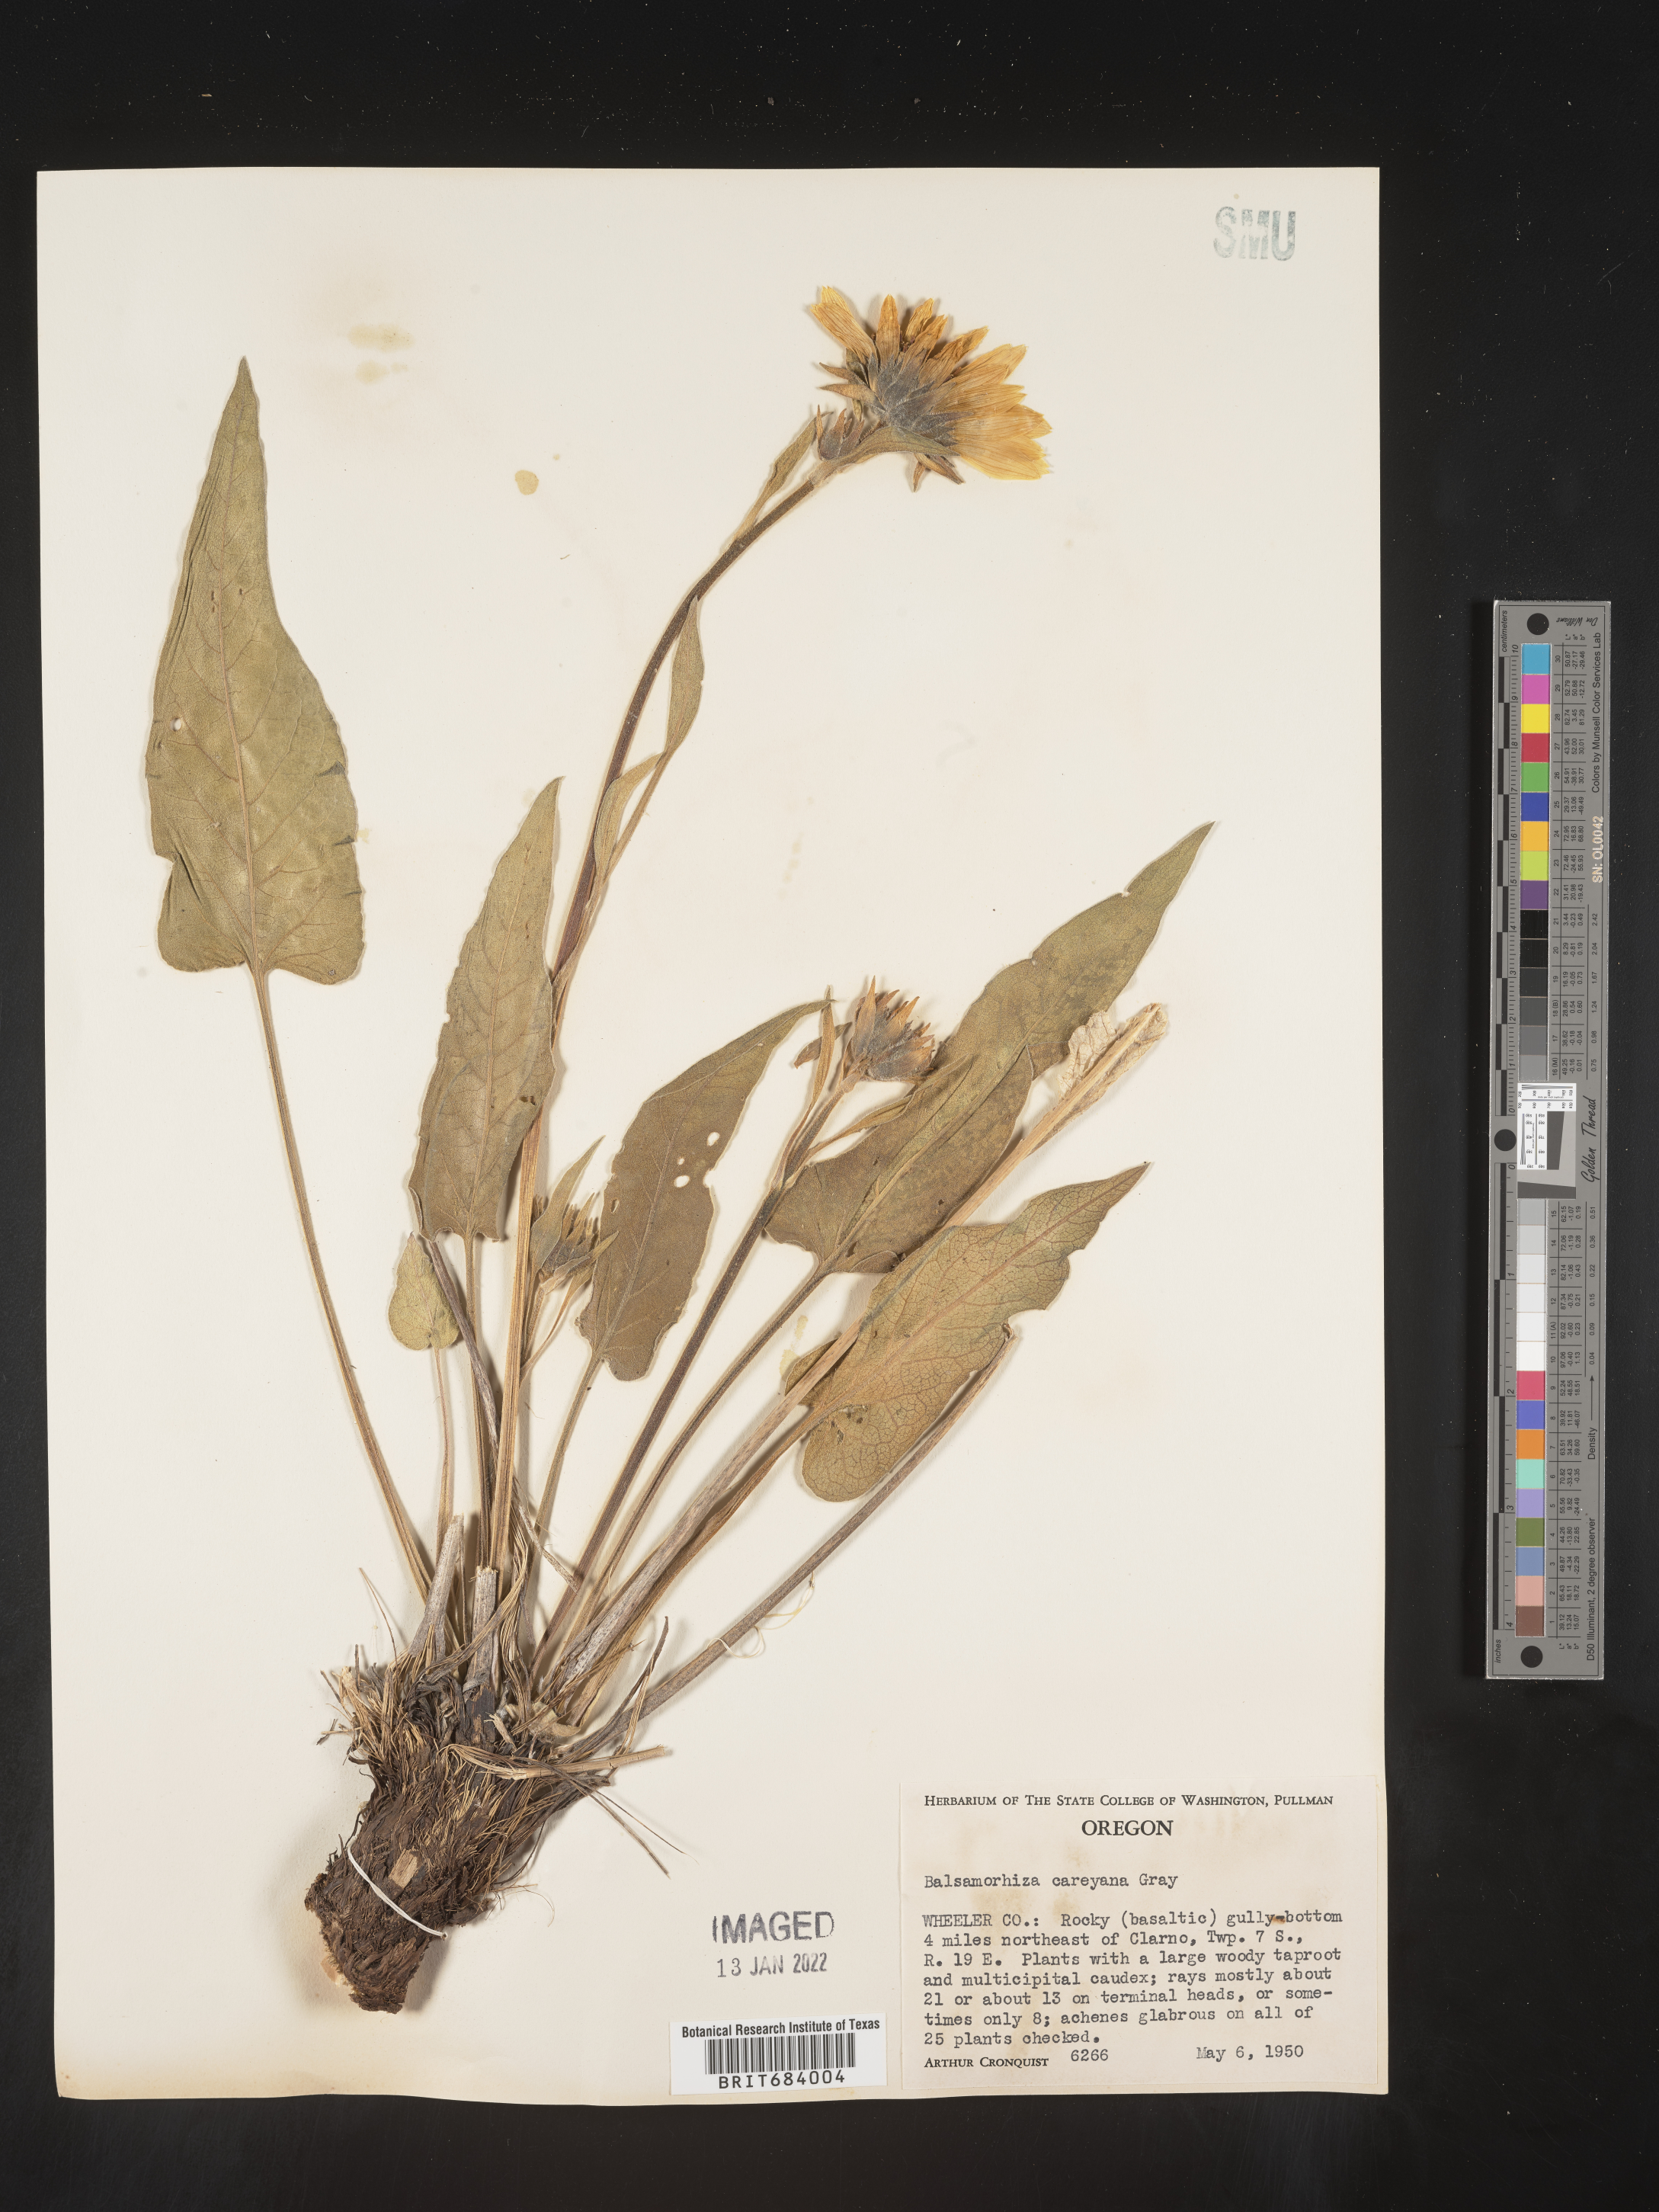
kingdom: Plantae
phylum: Tracheophyta
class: Magnoliopsida
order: Asterales
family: Asteraceae
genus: Balsamorhiza
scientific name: Balsamorhiza
